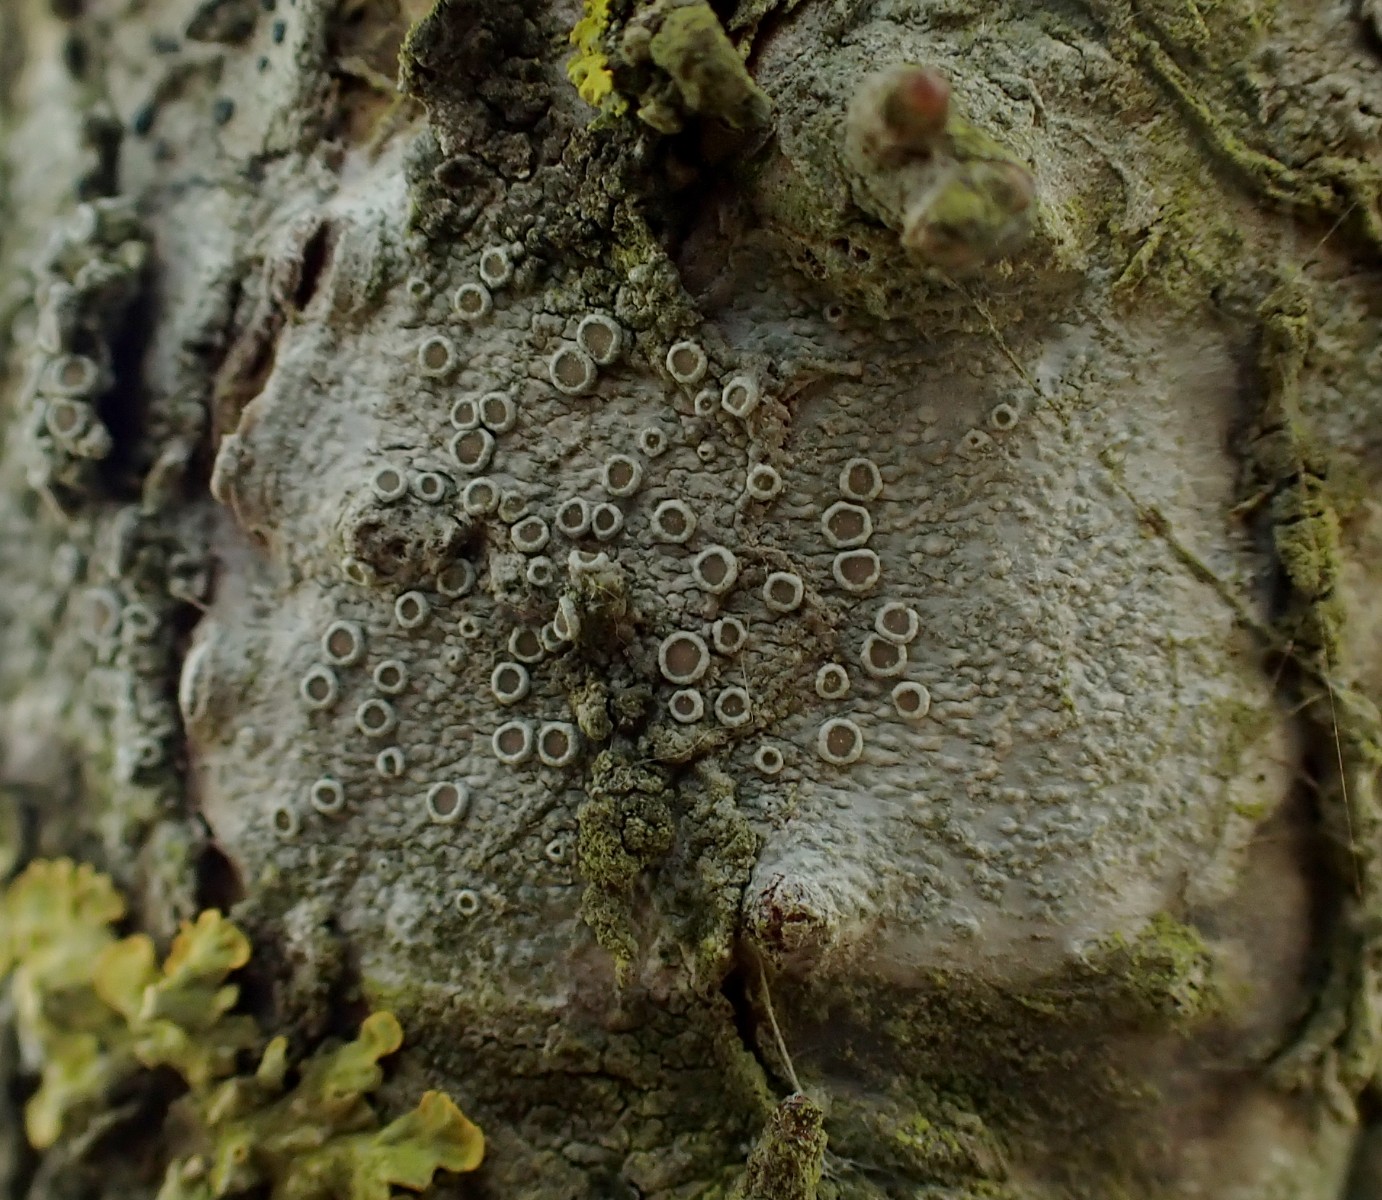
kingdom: Fungi
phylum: Ascomycota
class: Lecanoromycetes
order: Lecanorales
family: Lecanoraceae
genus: Lecanora
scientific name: Lecanora chlarotera
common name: brun kantskivelav
